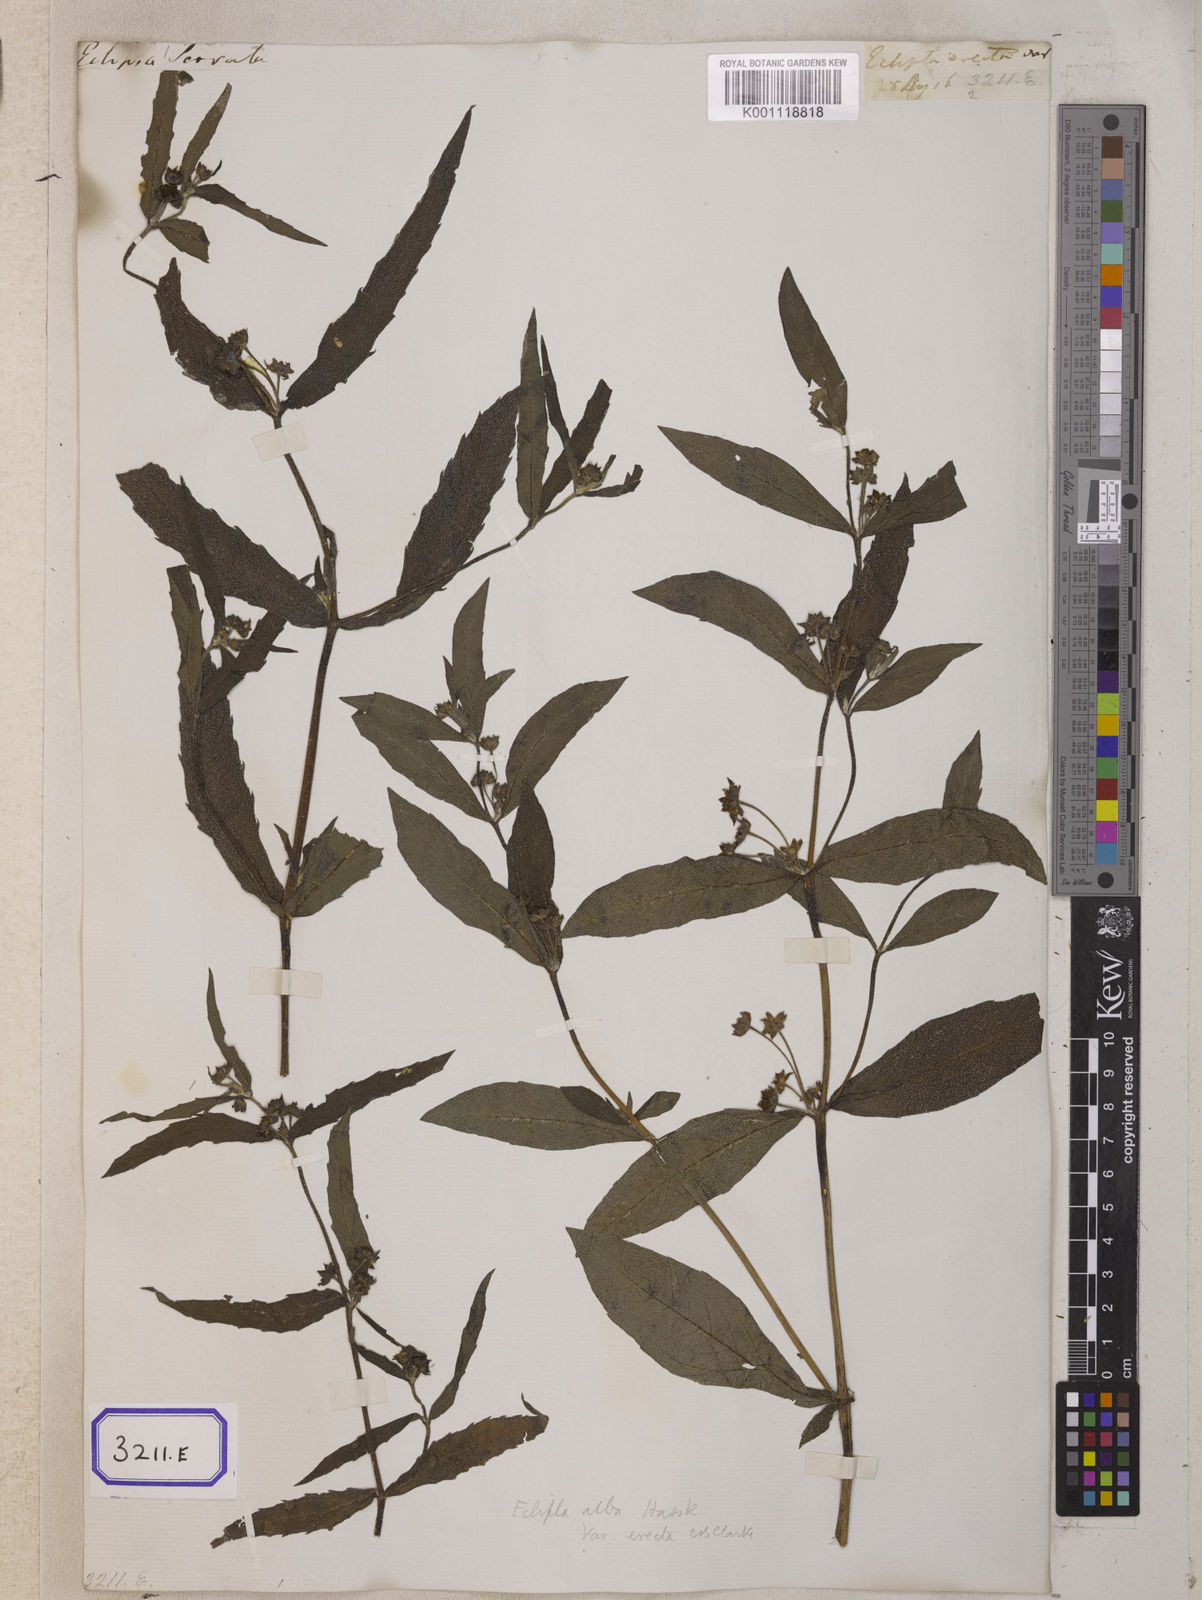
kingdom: Plantae
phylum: Tracheophyta
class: Magnoliopsida
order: Asterales
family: Asteraceae
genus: Eclipta
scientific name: Eclipta alba
